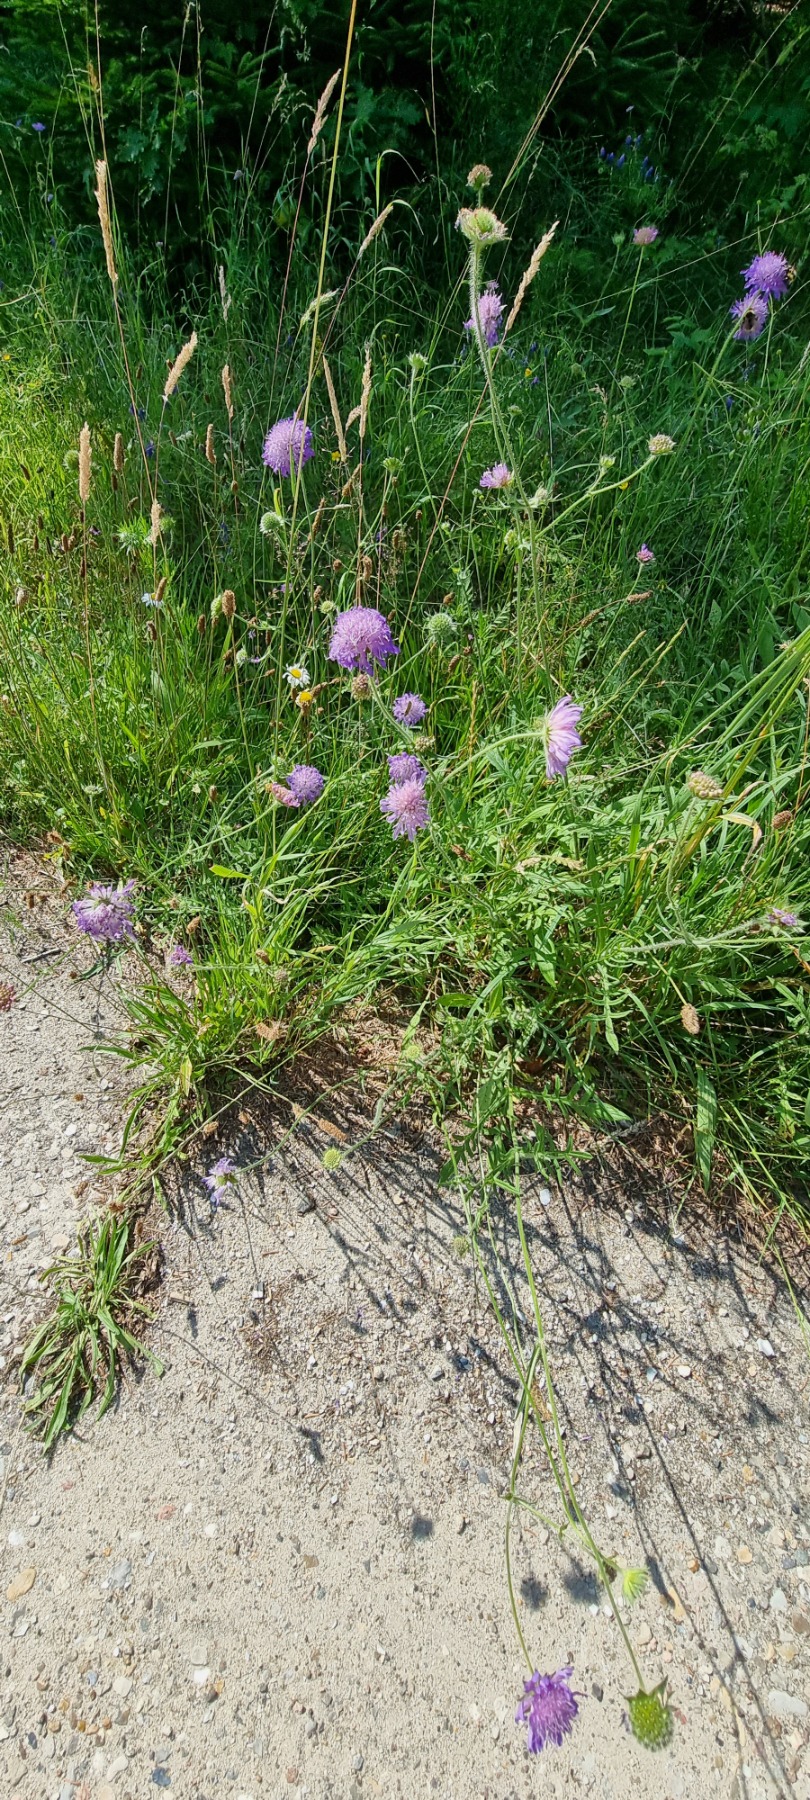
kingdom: Plantae
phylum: Tracheophyta
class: Magnoliopsida
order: Dipsacales
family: Caprifoliaceae
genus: Knautia
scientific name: Knautia arvensis
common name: Blåhat
